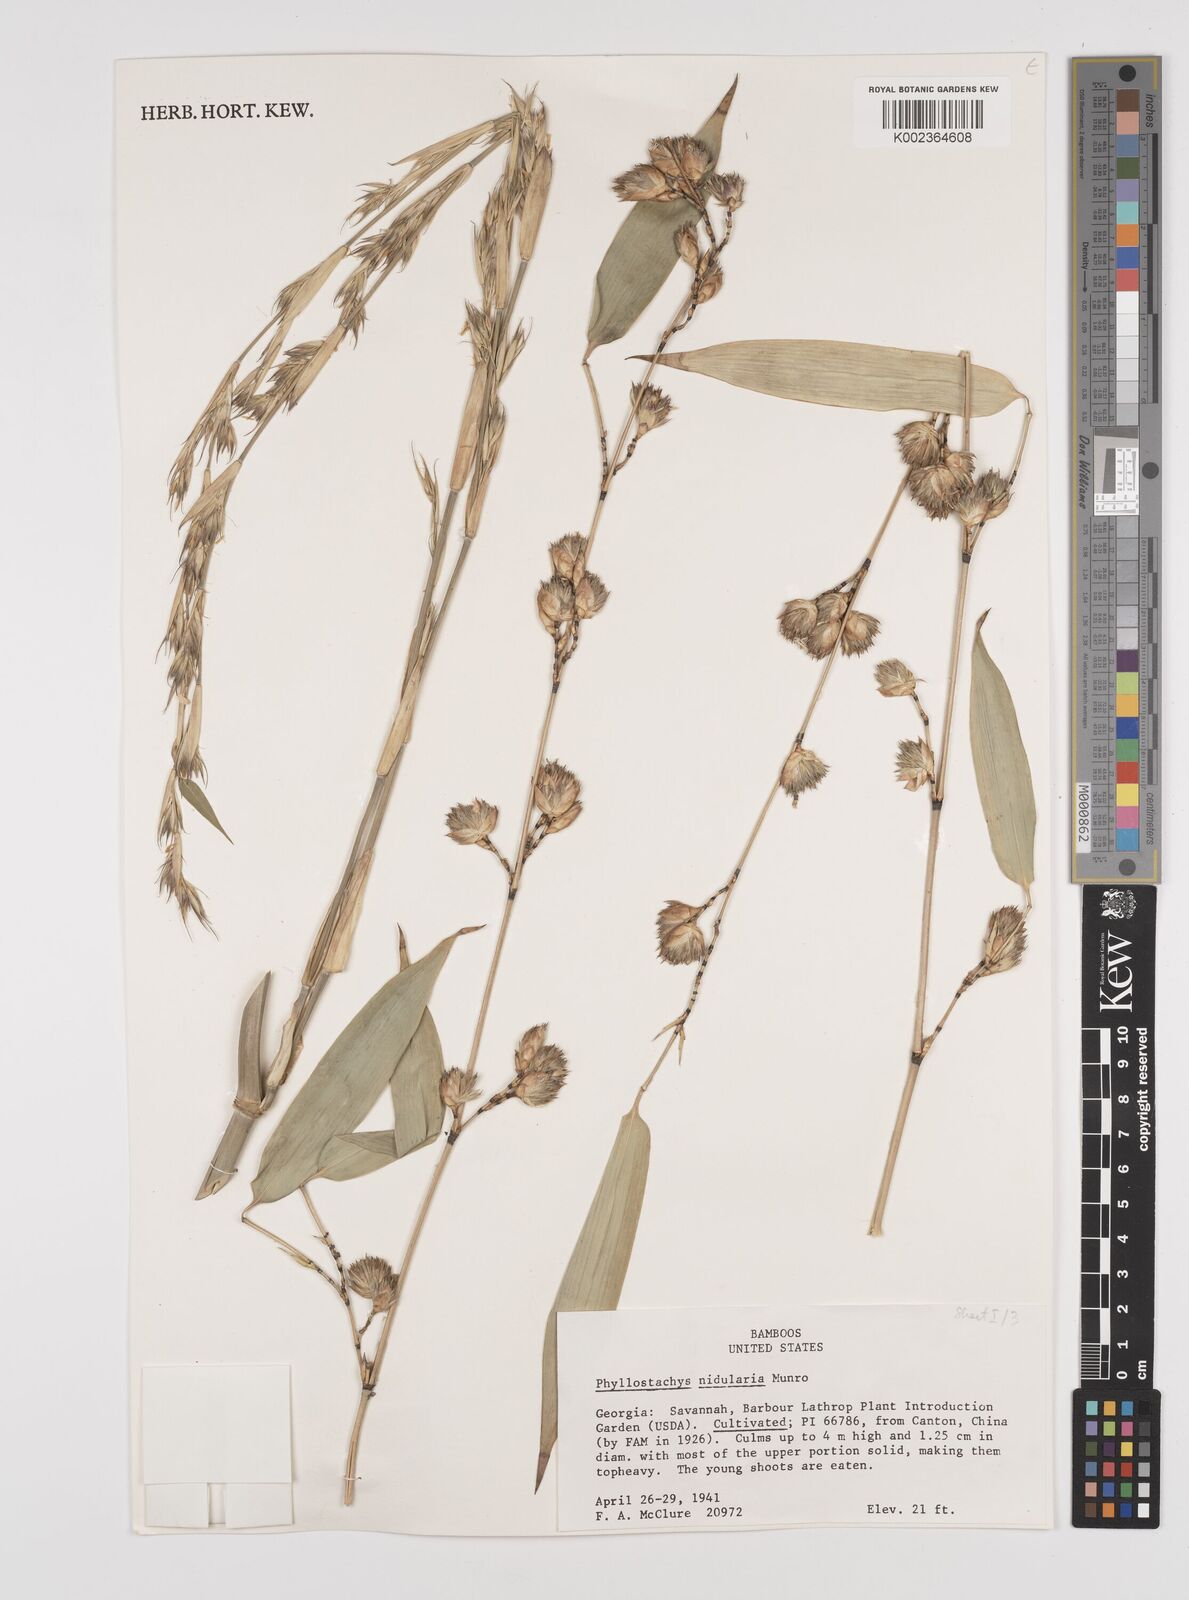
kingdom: Plantae
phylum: Tracheophyta
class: Liliopsida
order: Poales
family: Poaceae
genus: Phyllostachys
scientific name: Phyllostachys nidularia
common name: Broom bamboo
